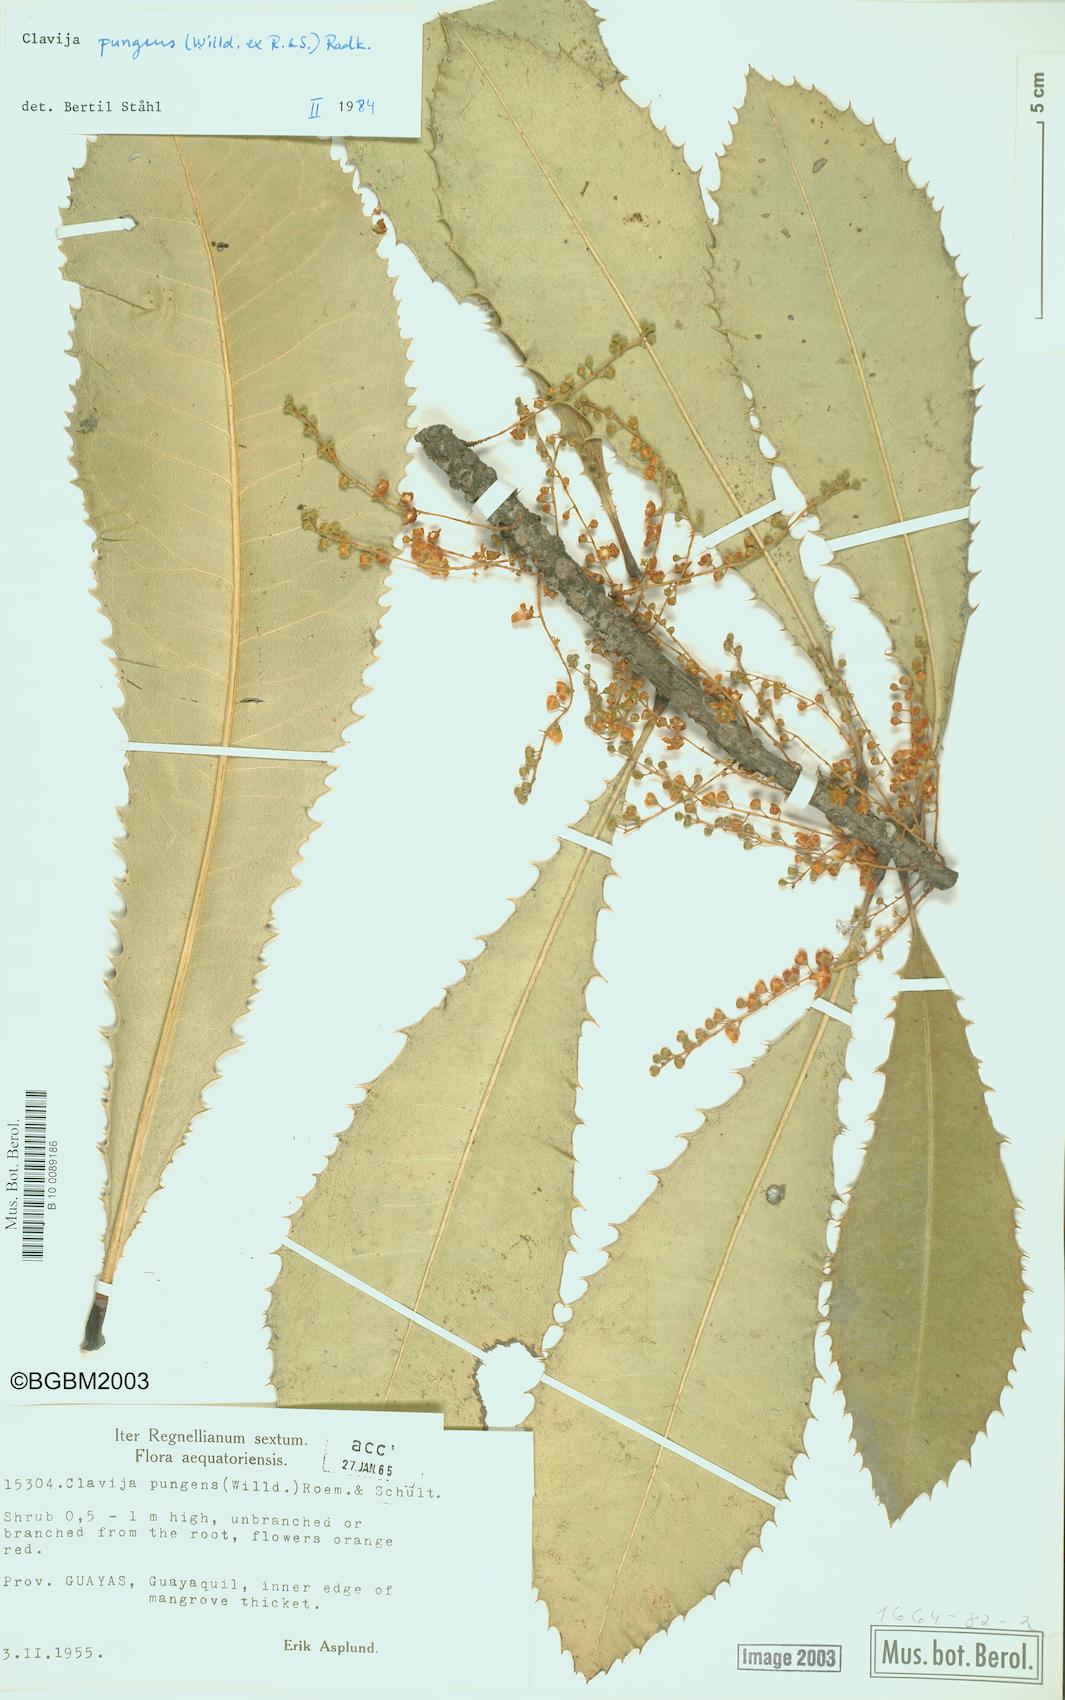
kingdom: Plantae
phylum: Tracheophyta
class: Magnoliopsida
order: Ericales
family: Primulaceae
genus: Clavija
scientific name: Clavija pungens
